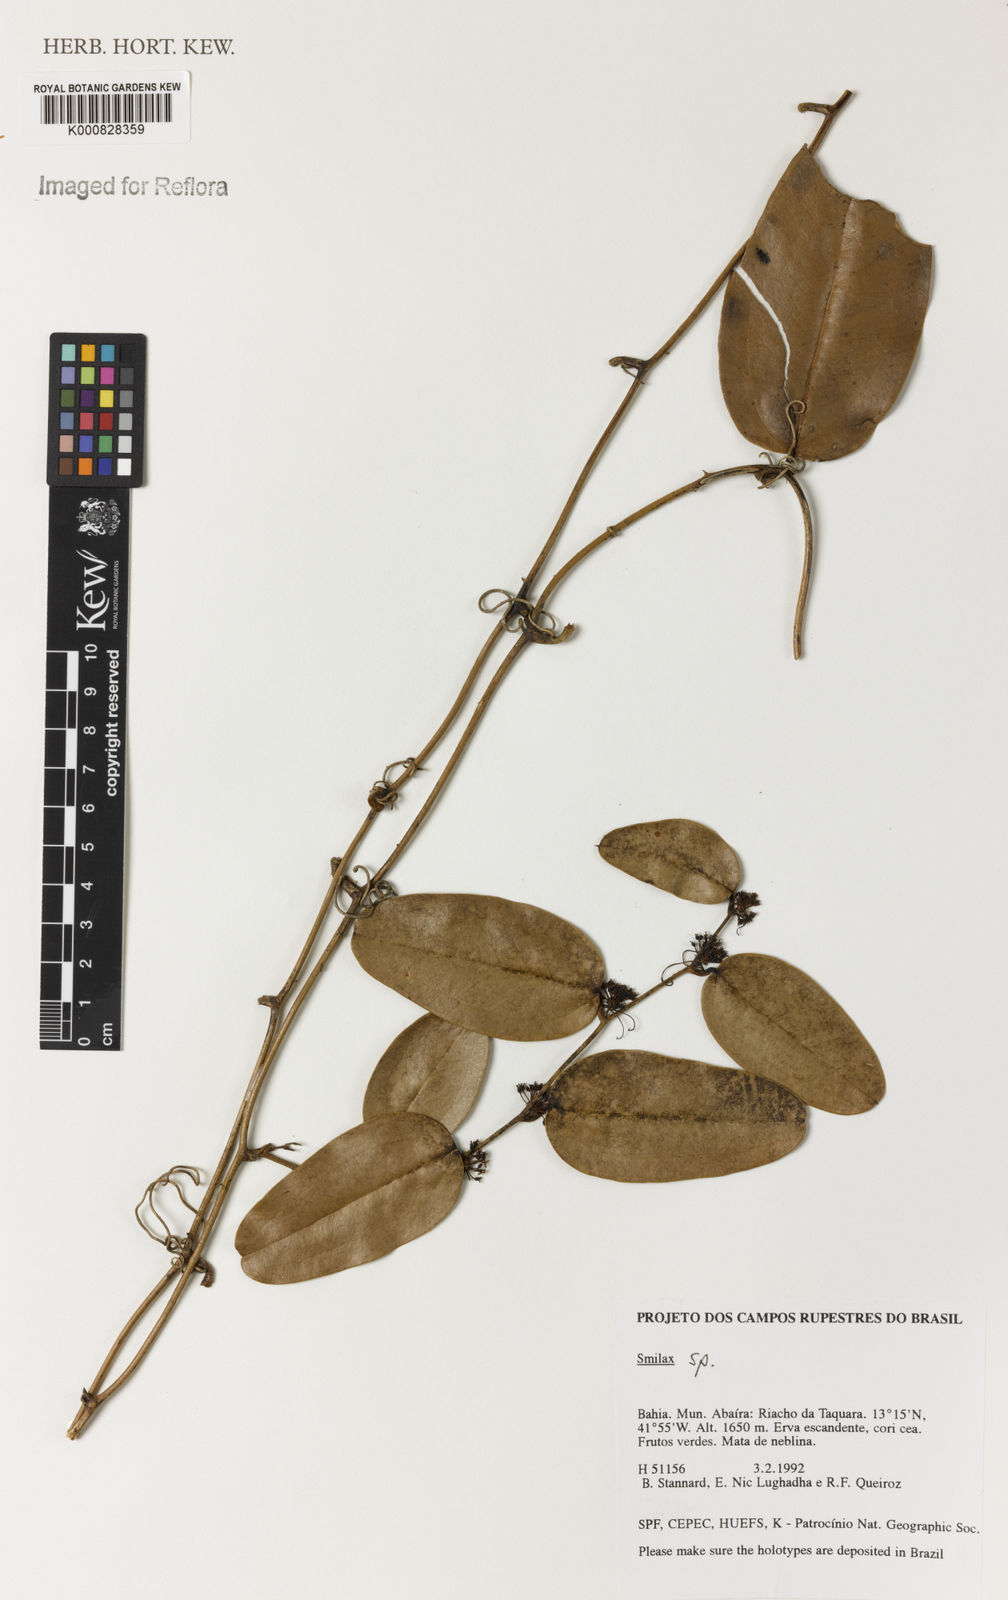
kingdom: Plantae
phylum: Tracheophyta
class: Liliopsida
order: Liliales
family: Smilacaceae
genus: Smilax
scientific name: Smilax
